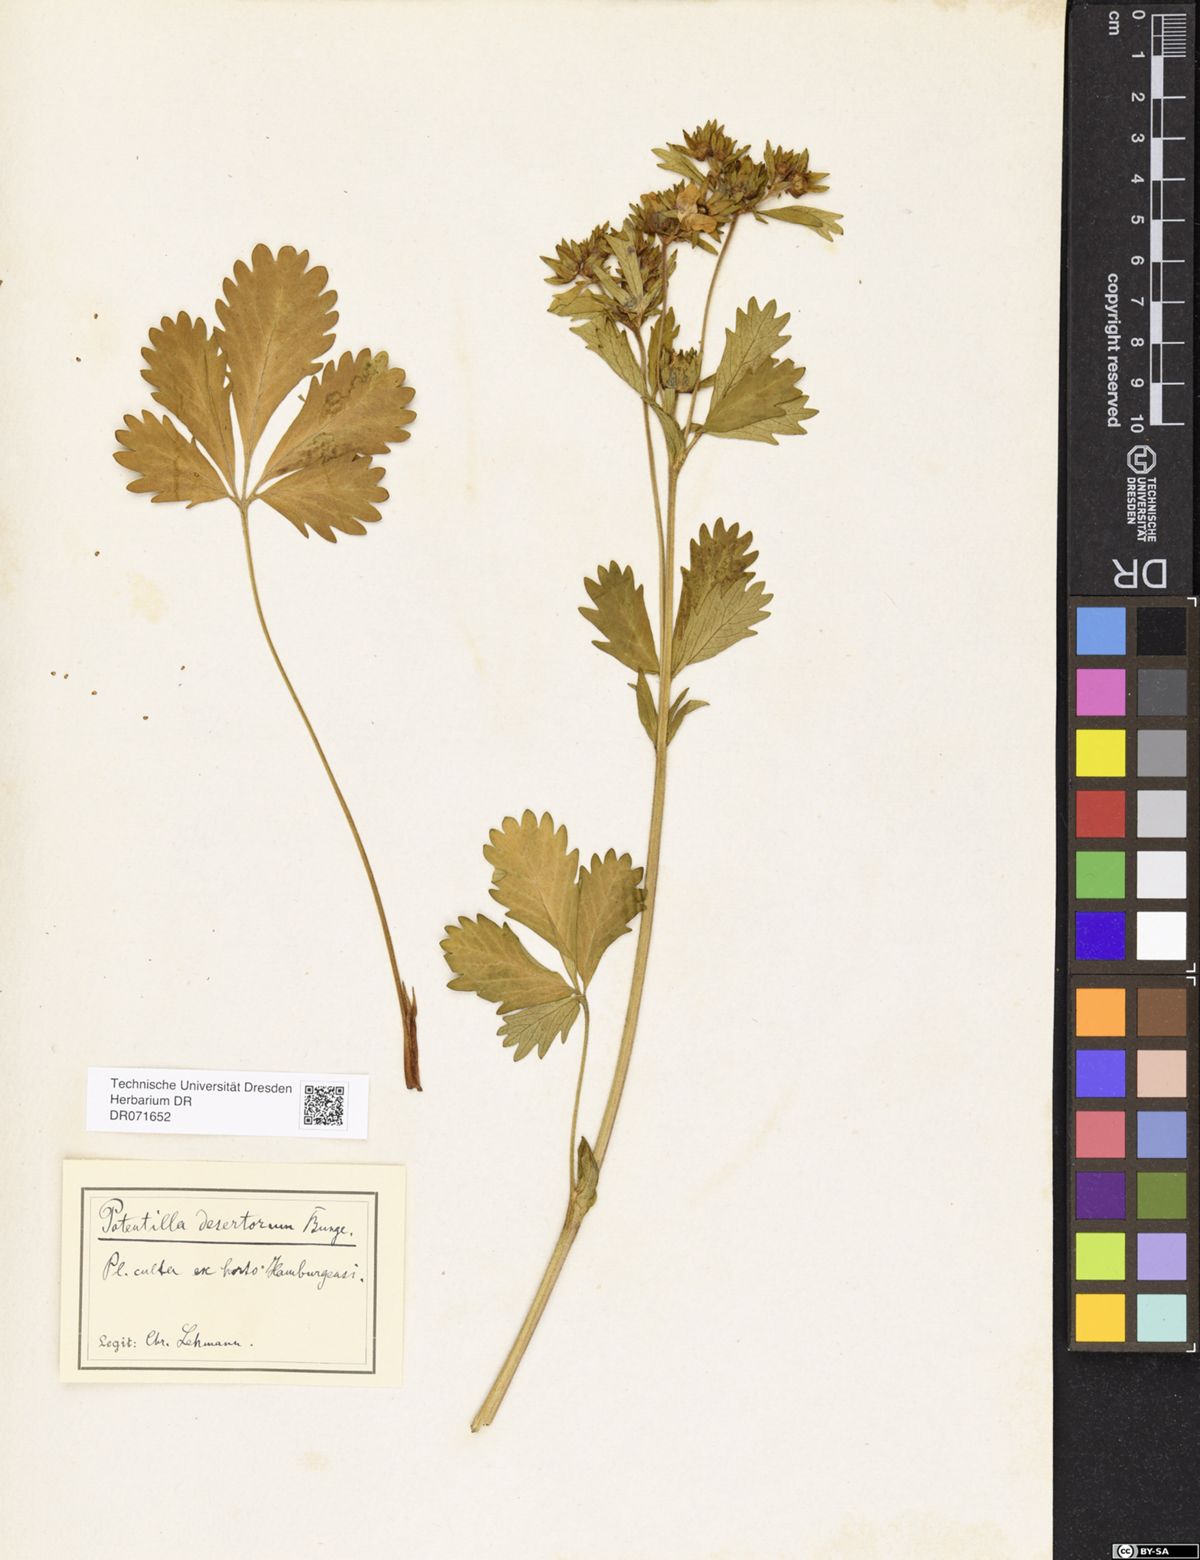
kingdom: Plantae
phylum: Tracheophyta
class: Magnoliopsida
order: Rosales
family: Rosaceae
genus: Potentilla
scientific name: Potentilla desertorum
